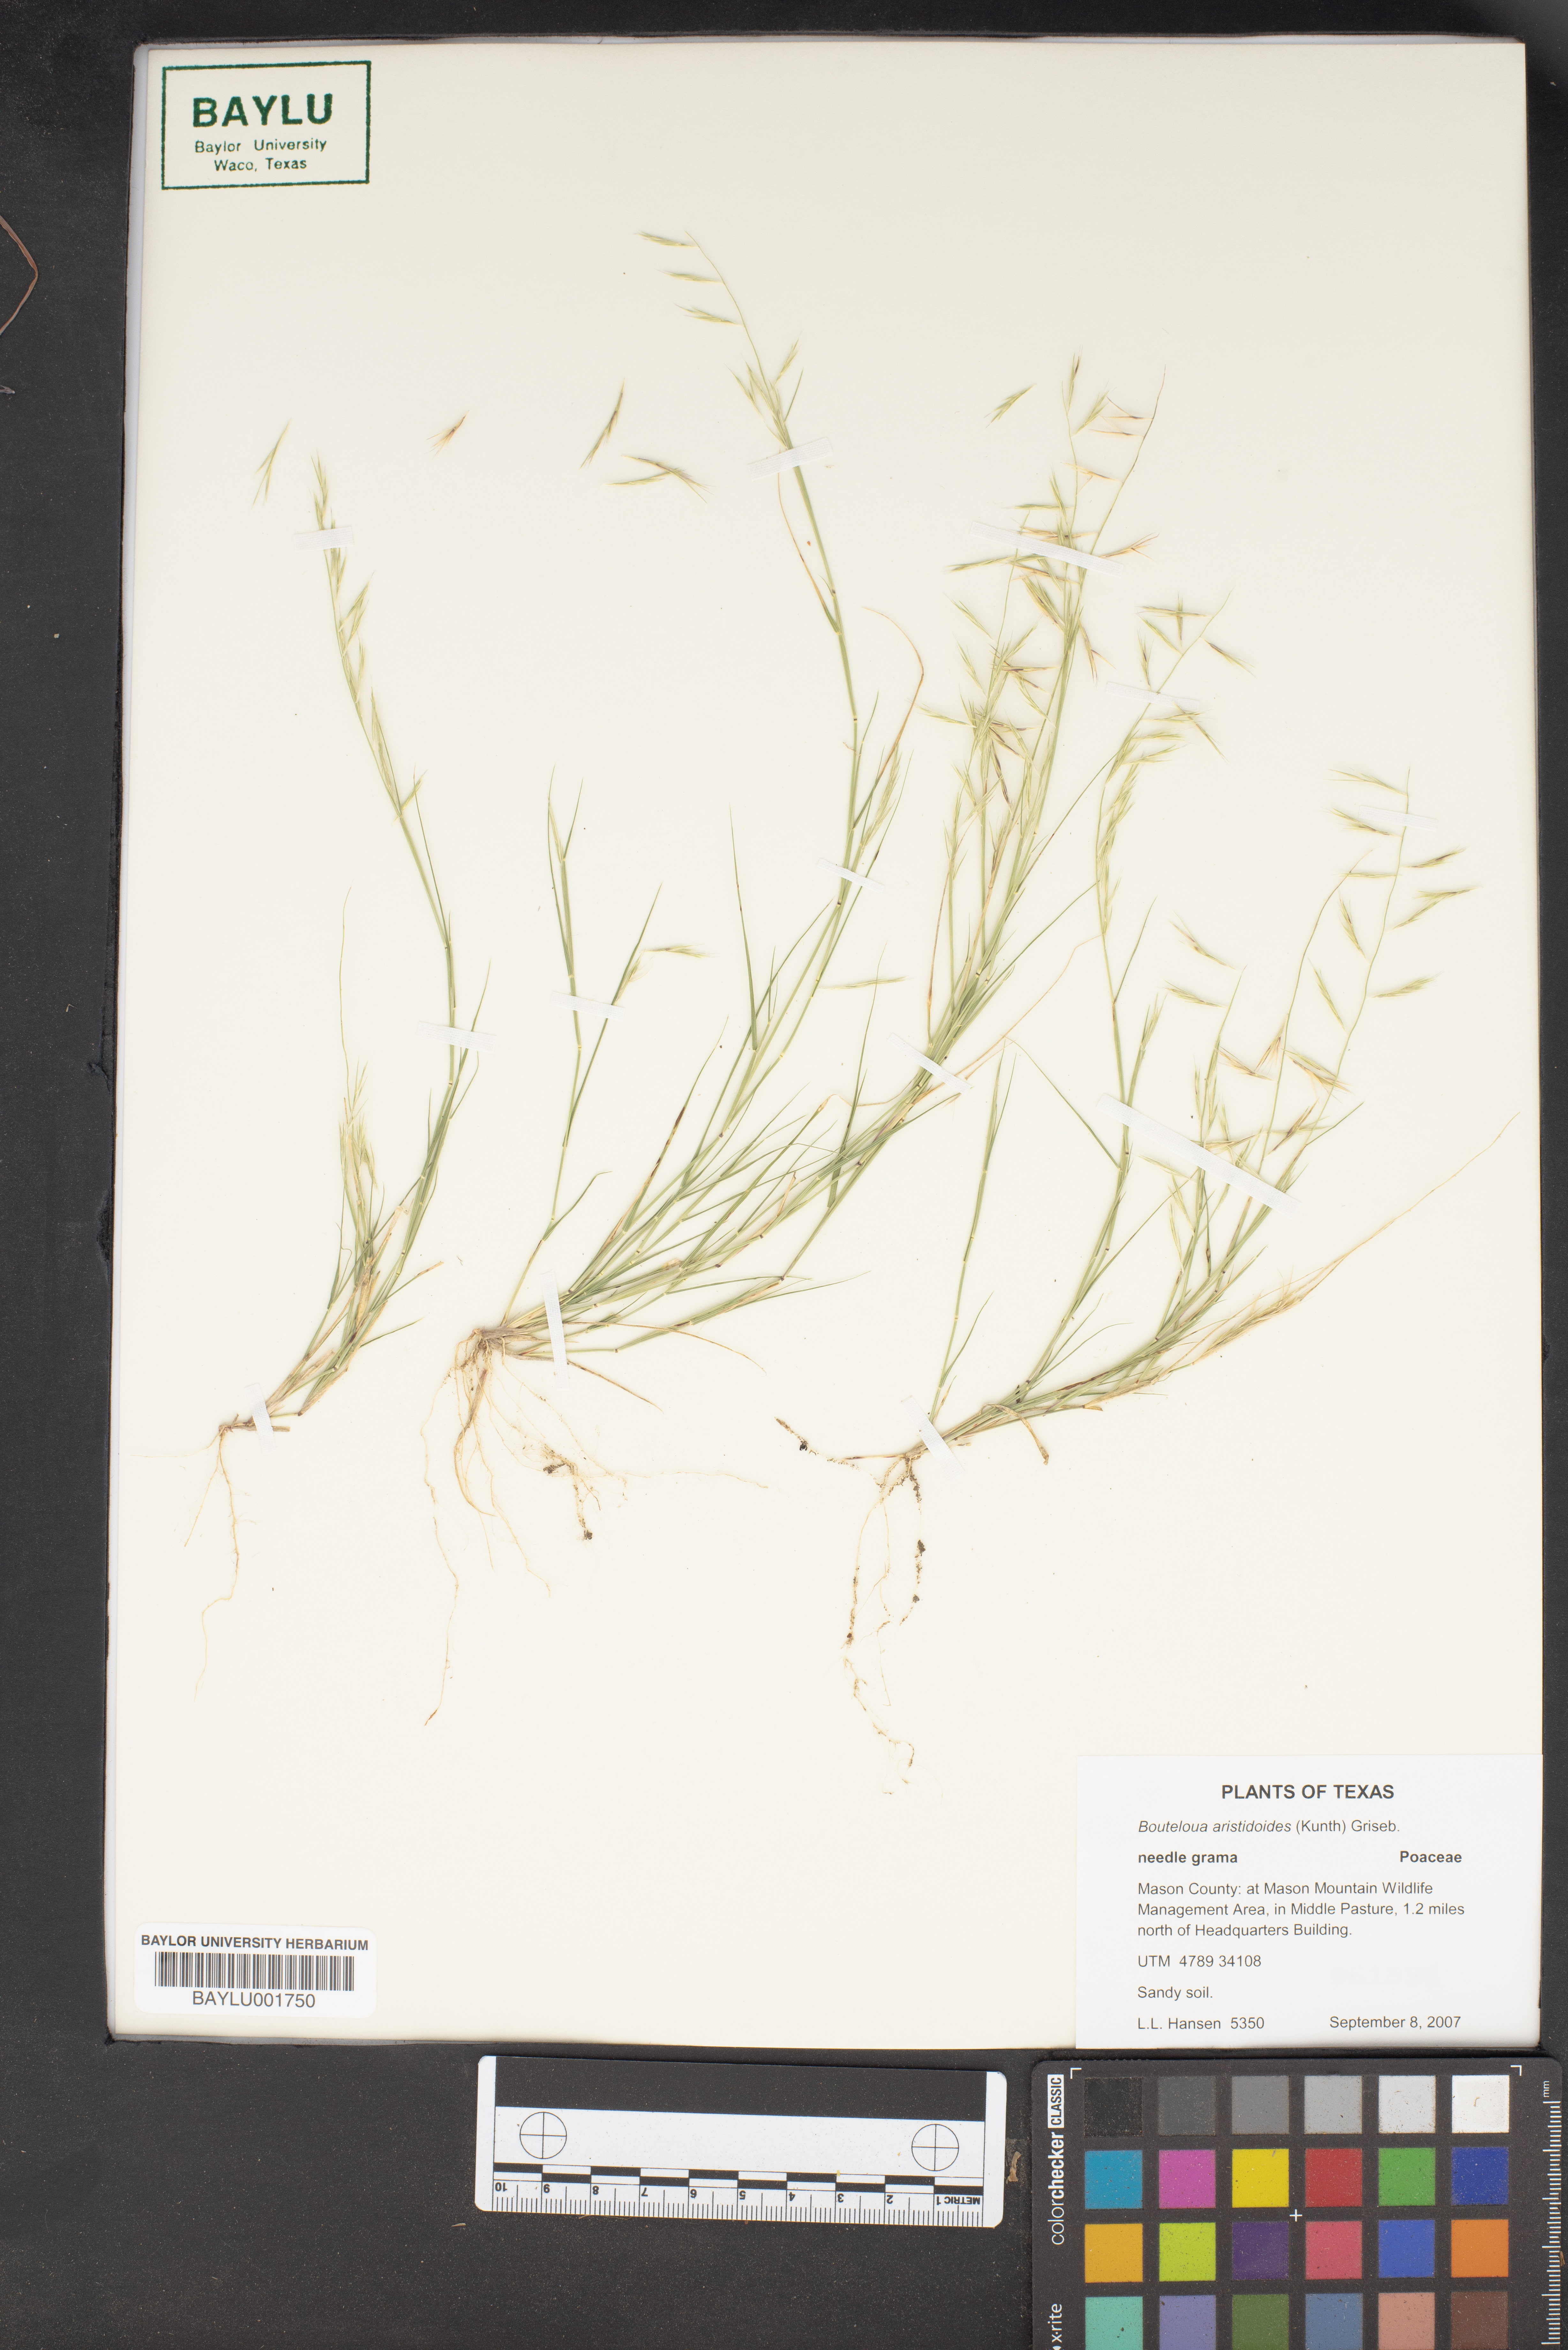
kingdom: Plantae
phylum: Tracheophyta
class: Liliopsida
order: Poales
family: Poaceae
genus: Bouteloua
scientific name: Bouteloua aristidoides
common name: Needle grama
